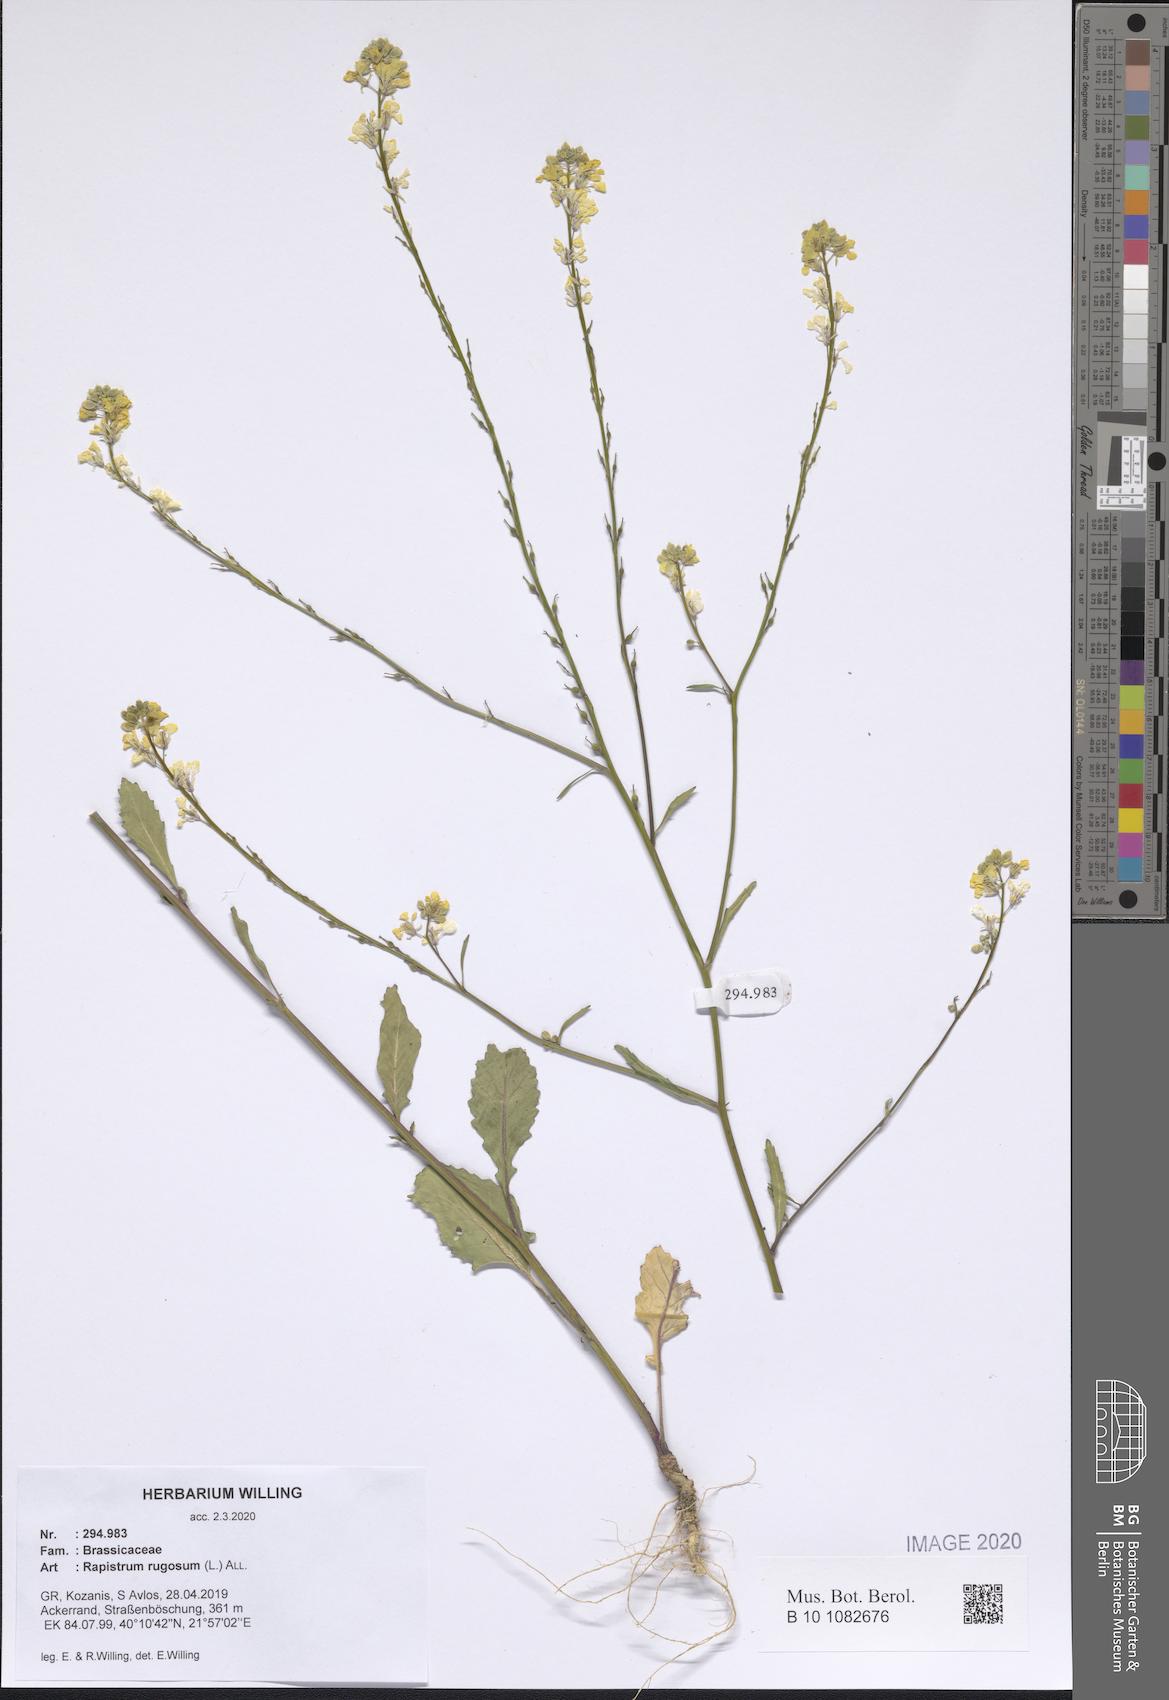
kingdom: Plantae
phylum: Tracheophyta
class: Magnoliopsida
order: Brassicales
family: Brassicaceae
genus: Rapistrum
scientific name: Rapistrum rugosum
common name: Annual bastardcabbage
